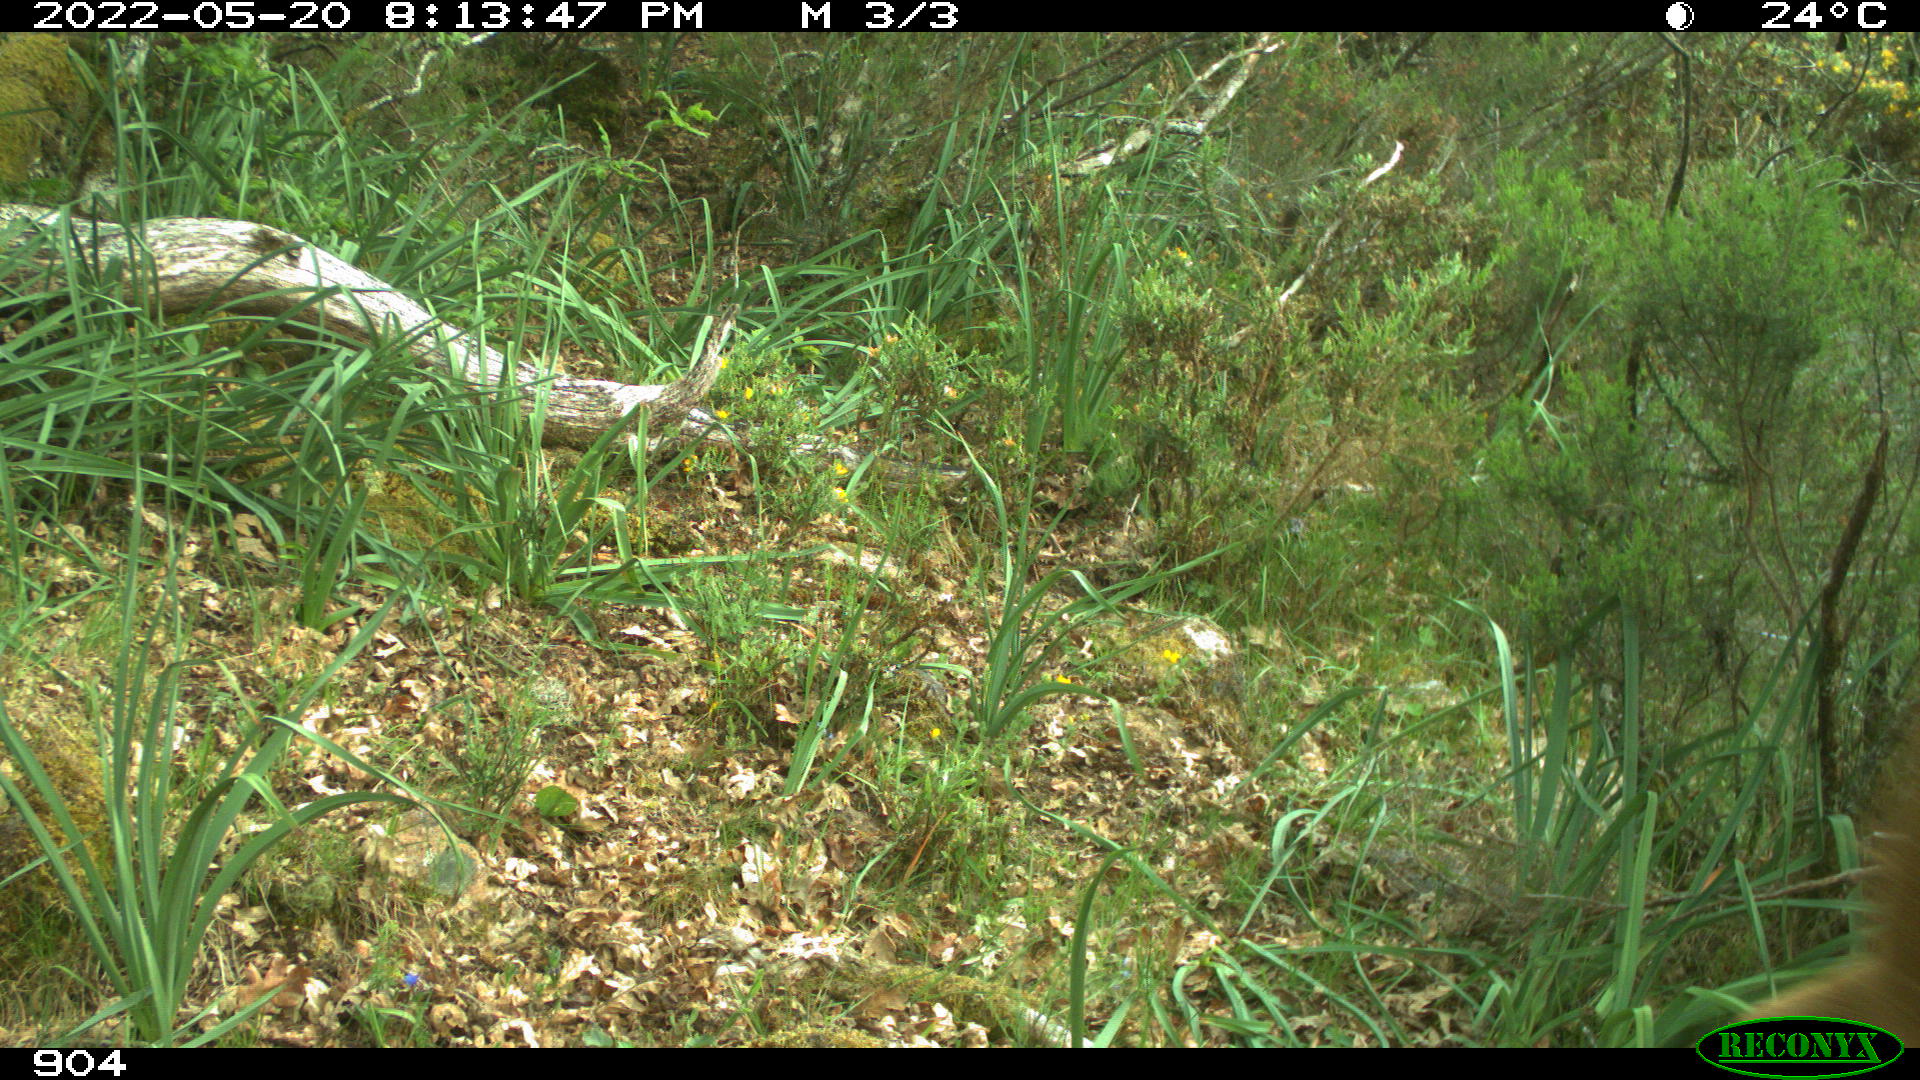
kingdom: Animalia
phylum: Chordata
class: Mammalia
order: Artiodactyla
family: Bovidae
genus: Bos
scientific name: Bos taurus
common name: Domesticated cattle
